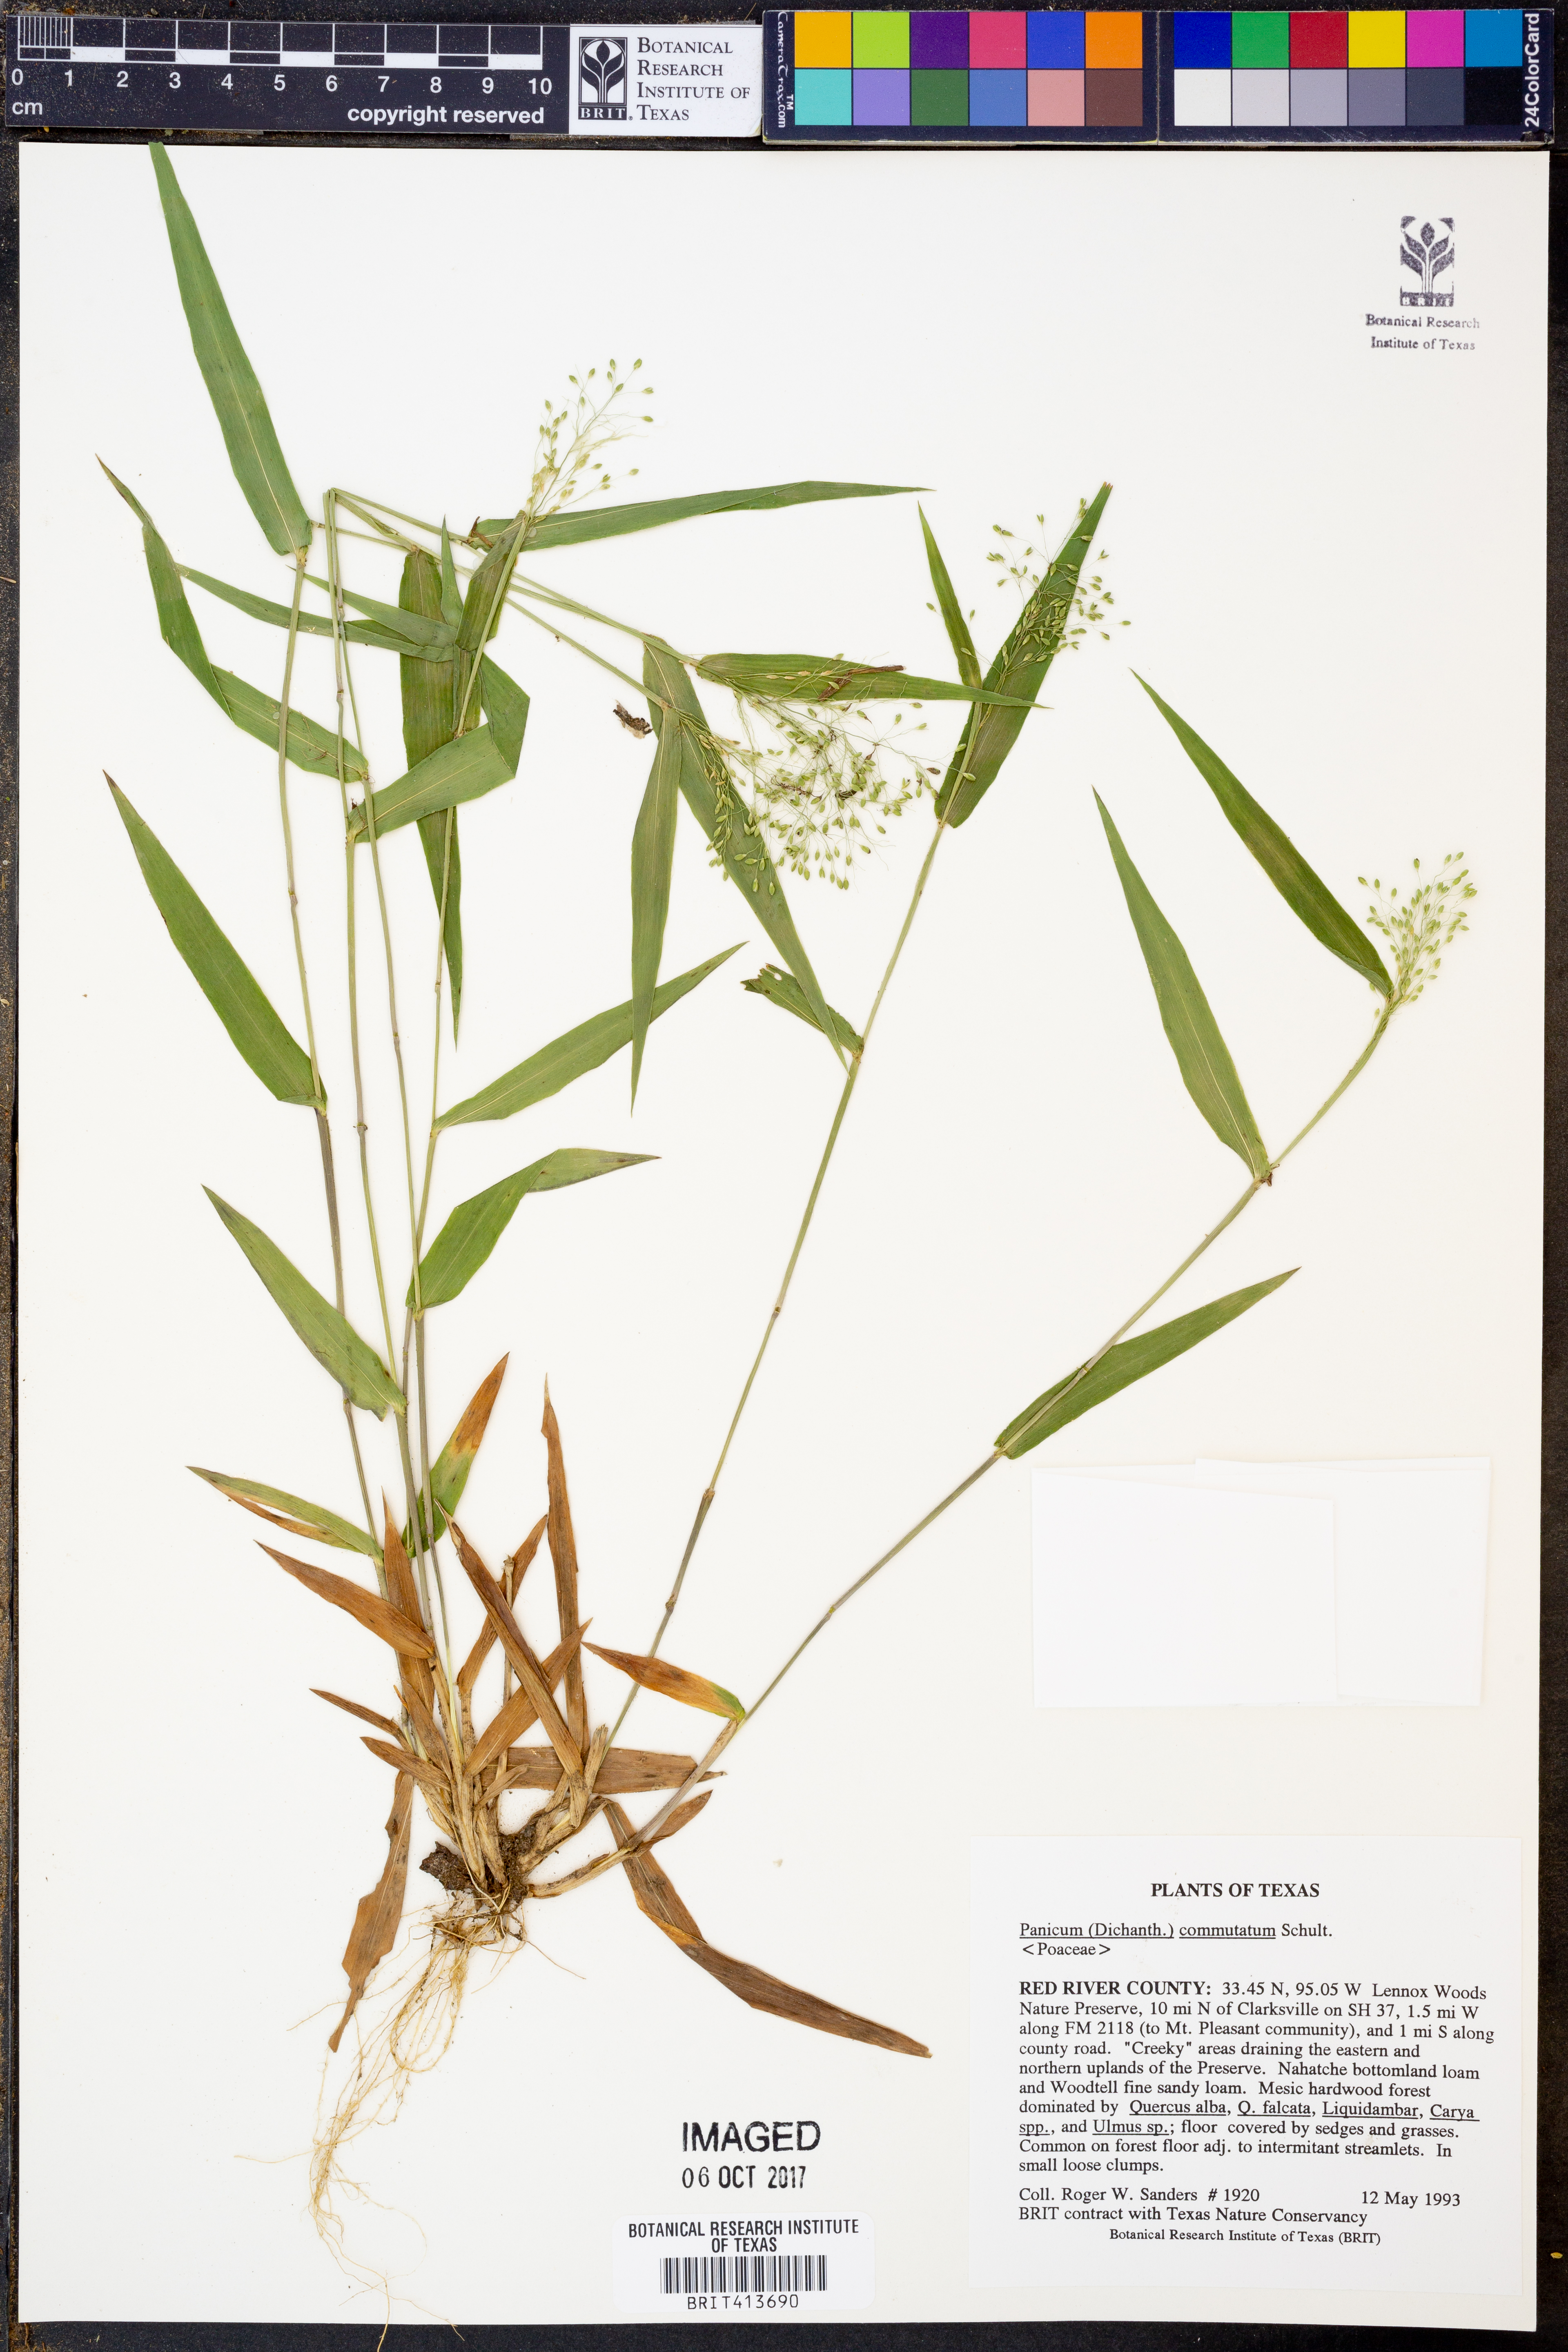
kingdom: Plantae
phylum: Tracheophyta
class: Liliopsida
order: Poales
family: Poaceae
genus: Dichanthelium
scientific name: Dichanthelium commutatum
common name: Variable witchgrass
